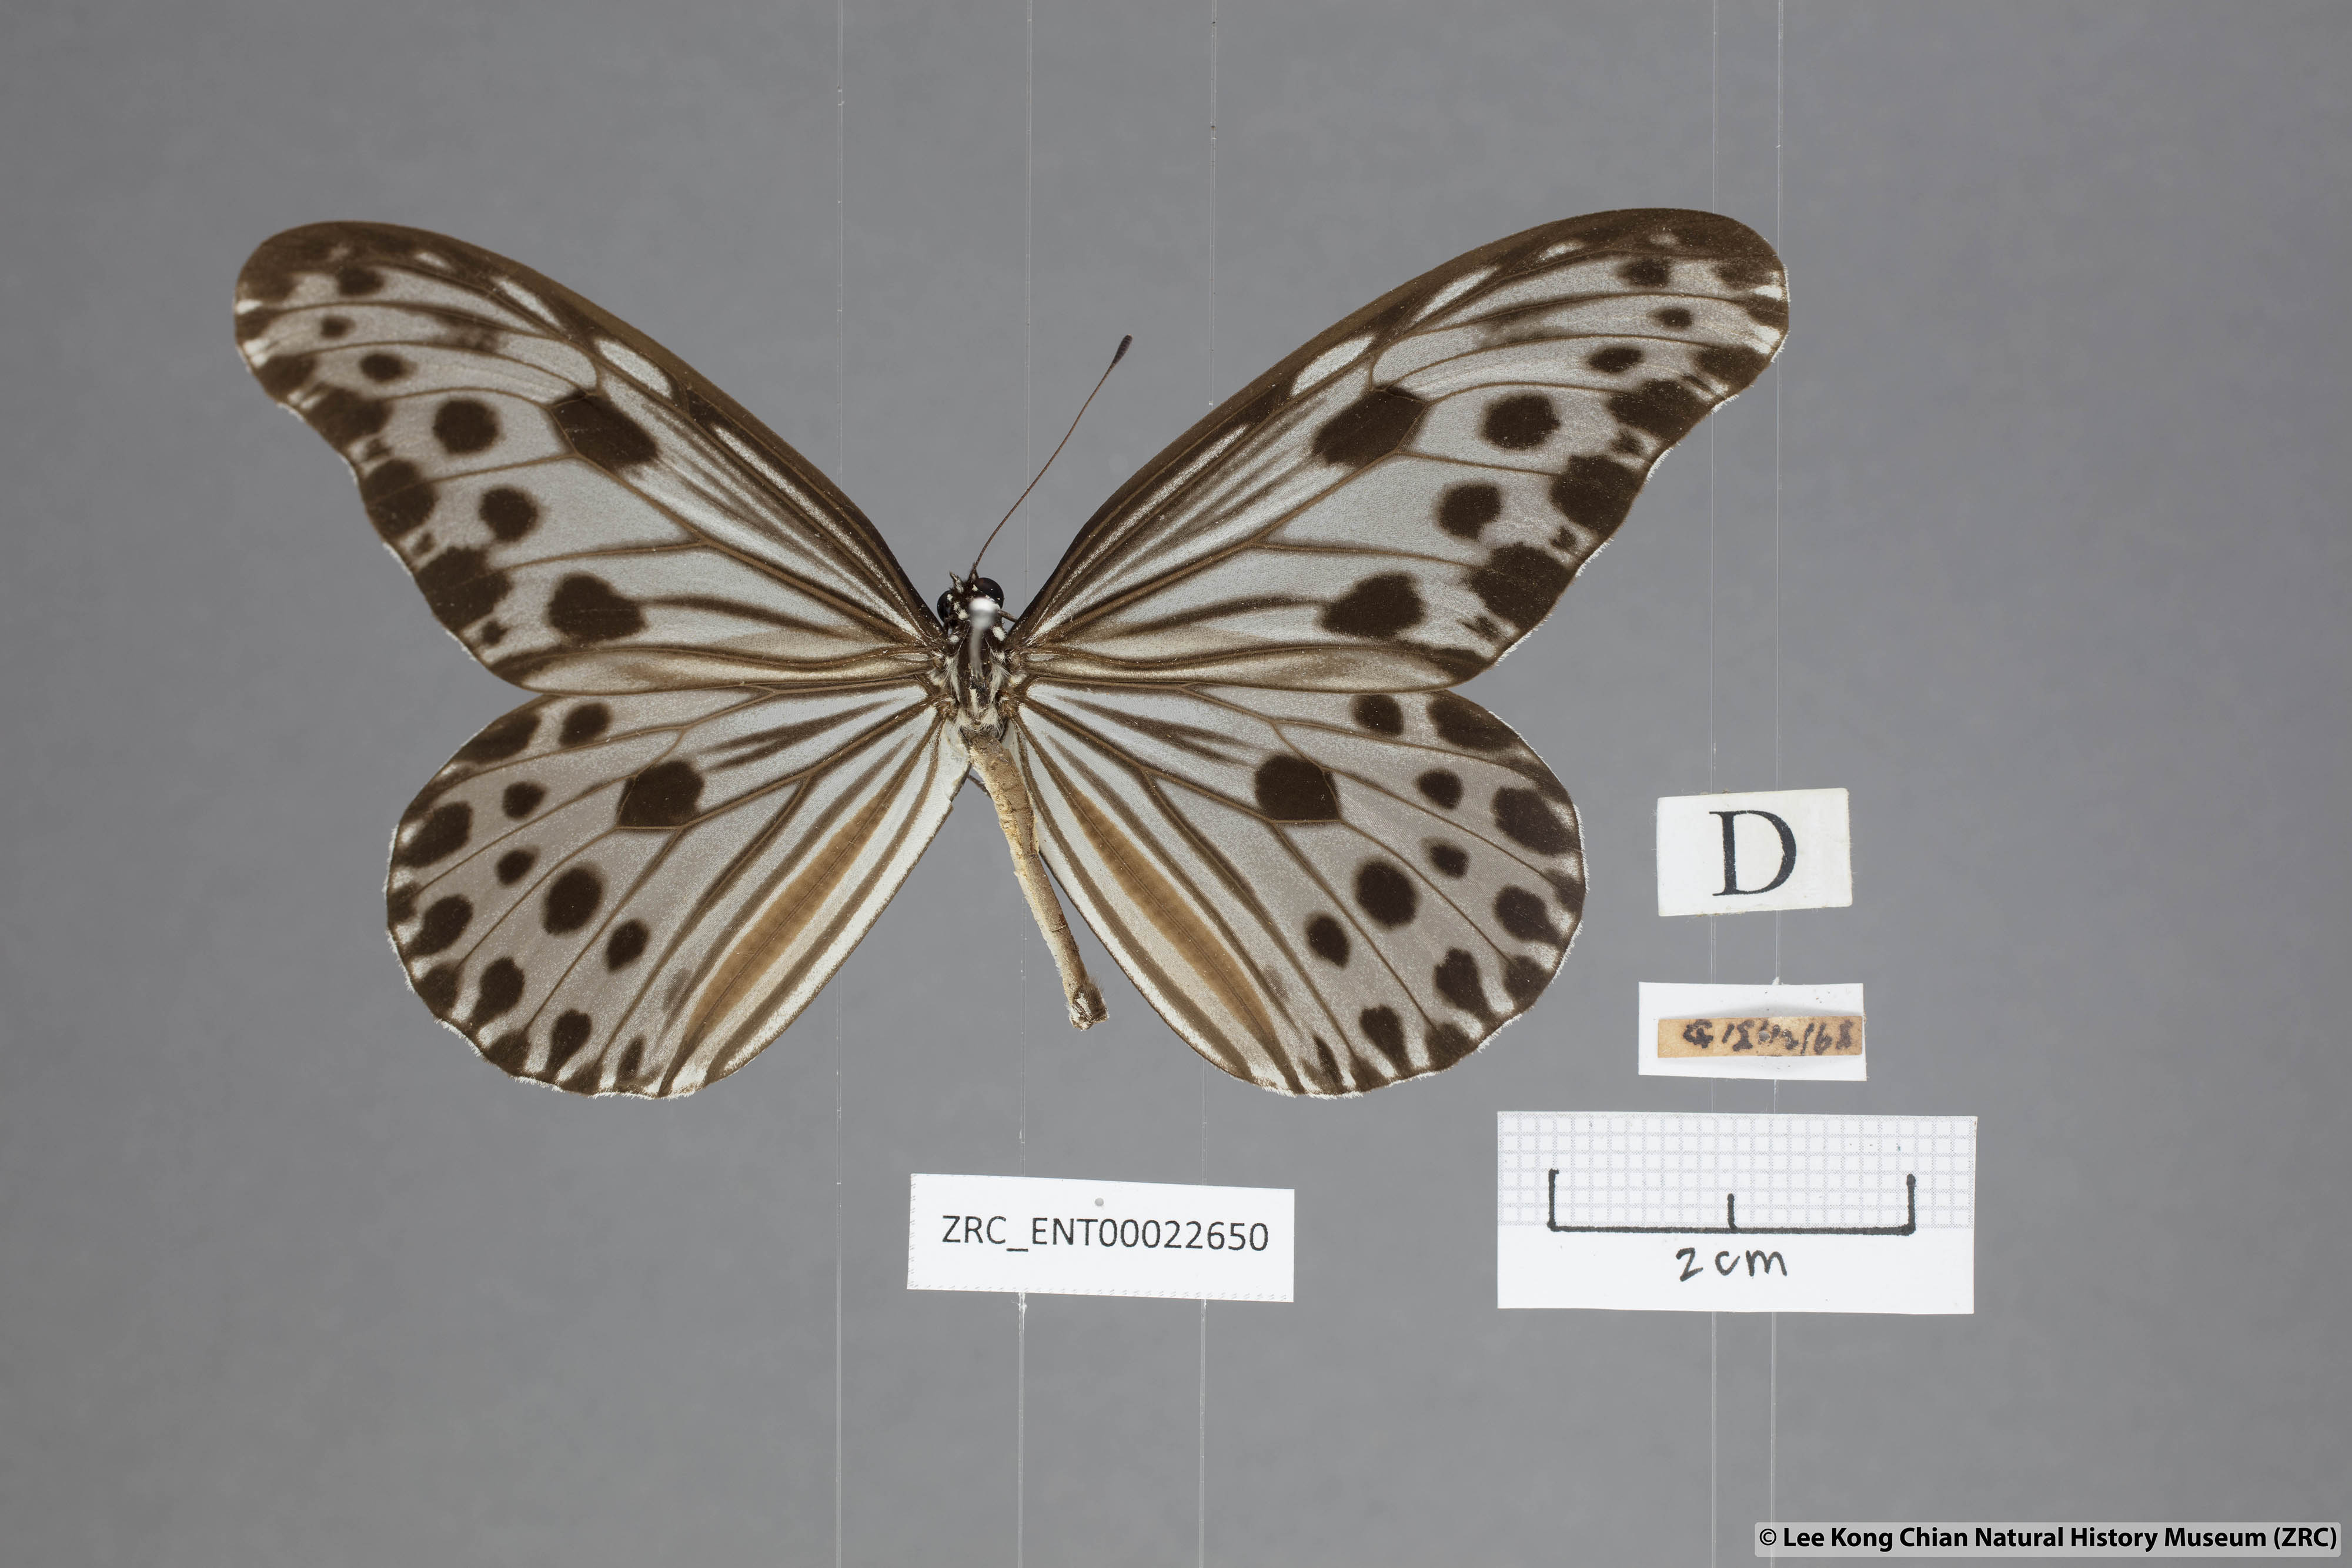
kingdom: Animalia
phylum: Arthropoda
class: Insecta
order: Lepidoptera
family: Nymphalidae
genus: Ideopsis
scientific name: Ideopsis gaura
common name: Smaller wood nymph
